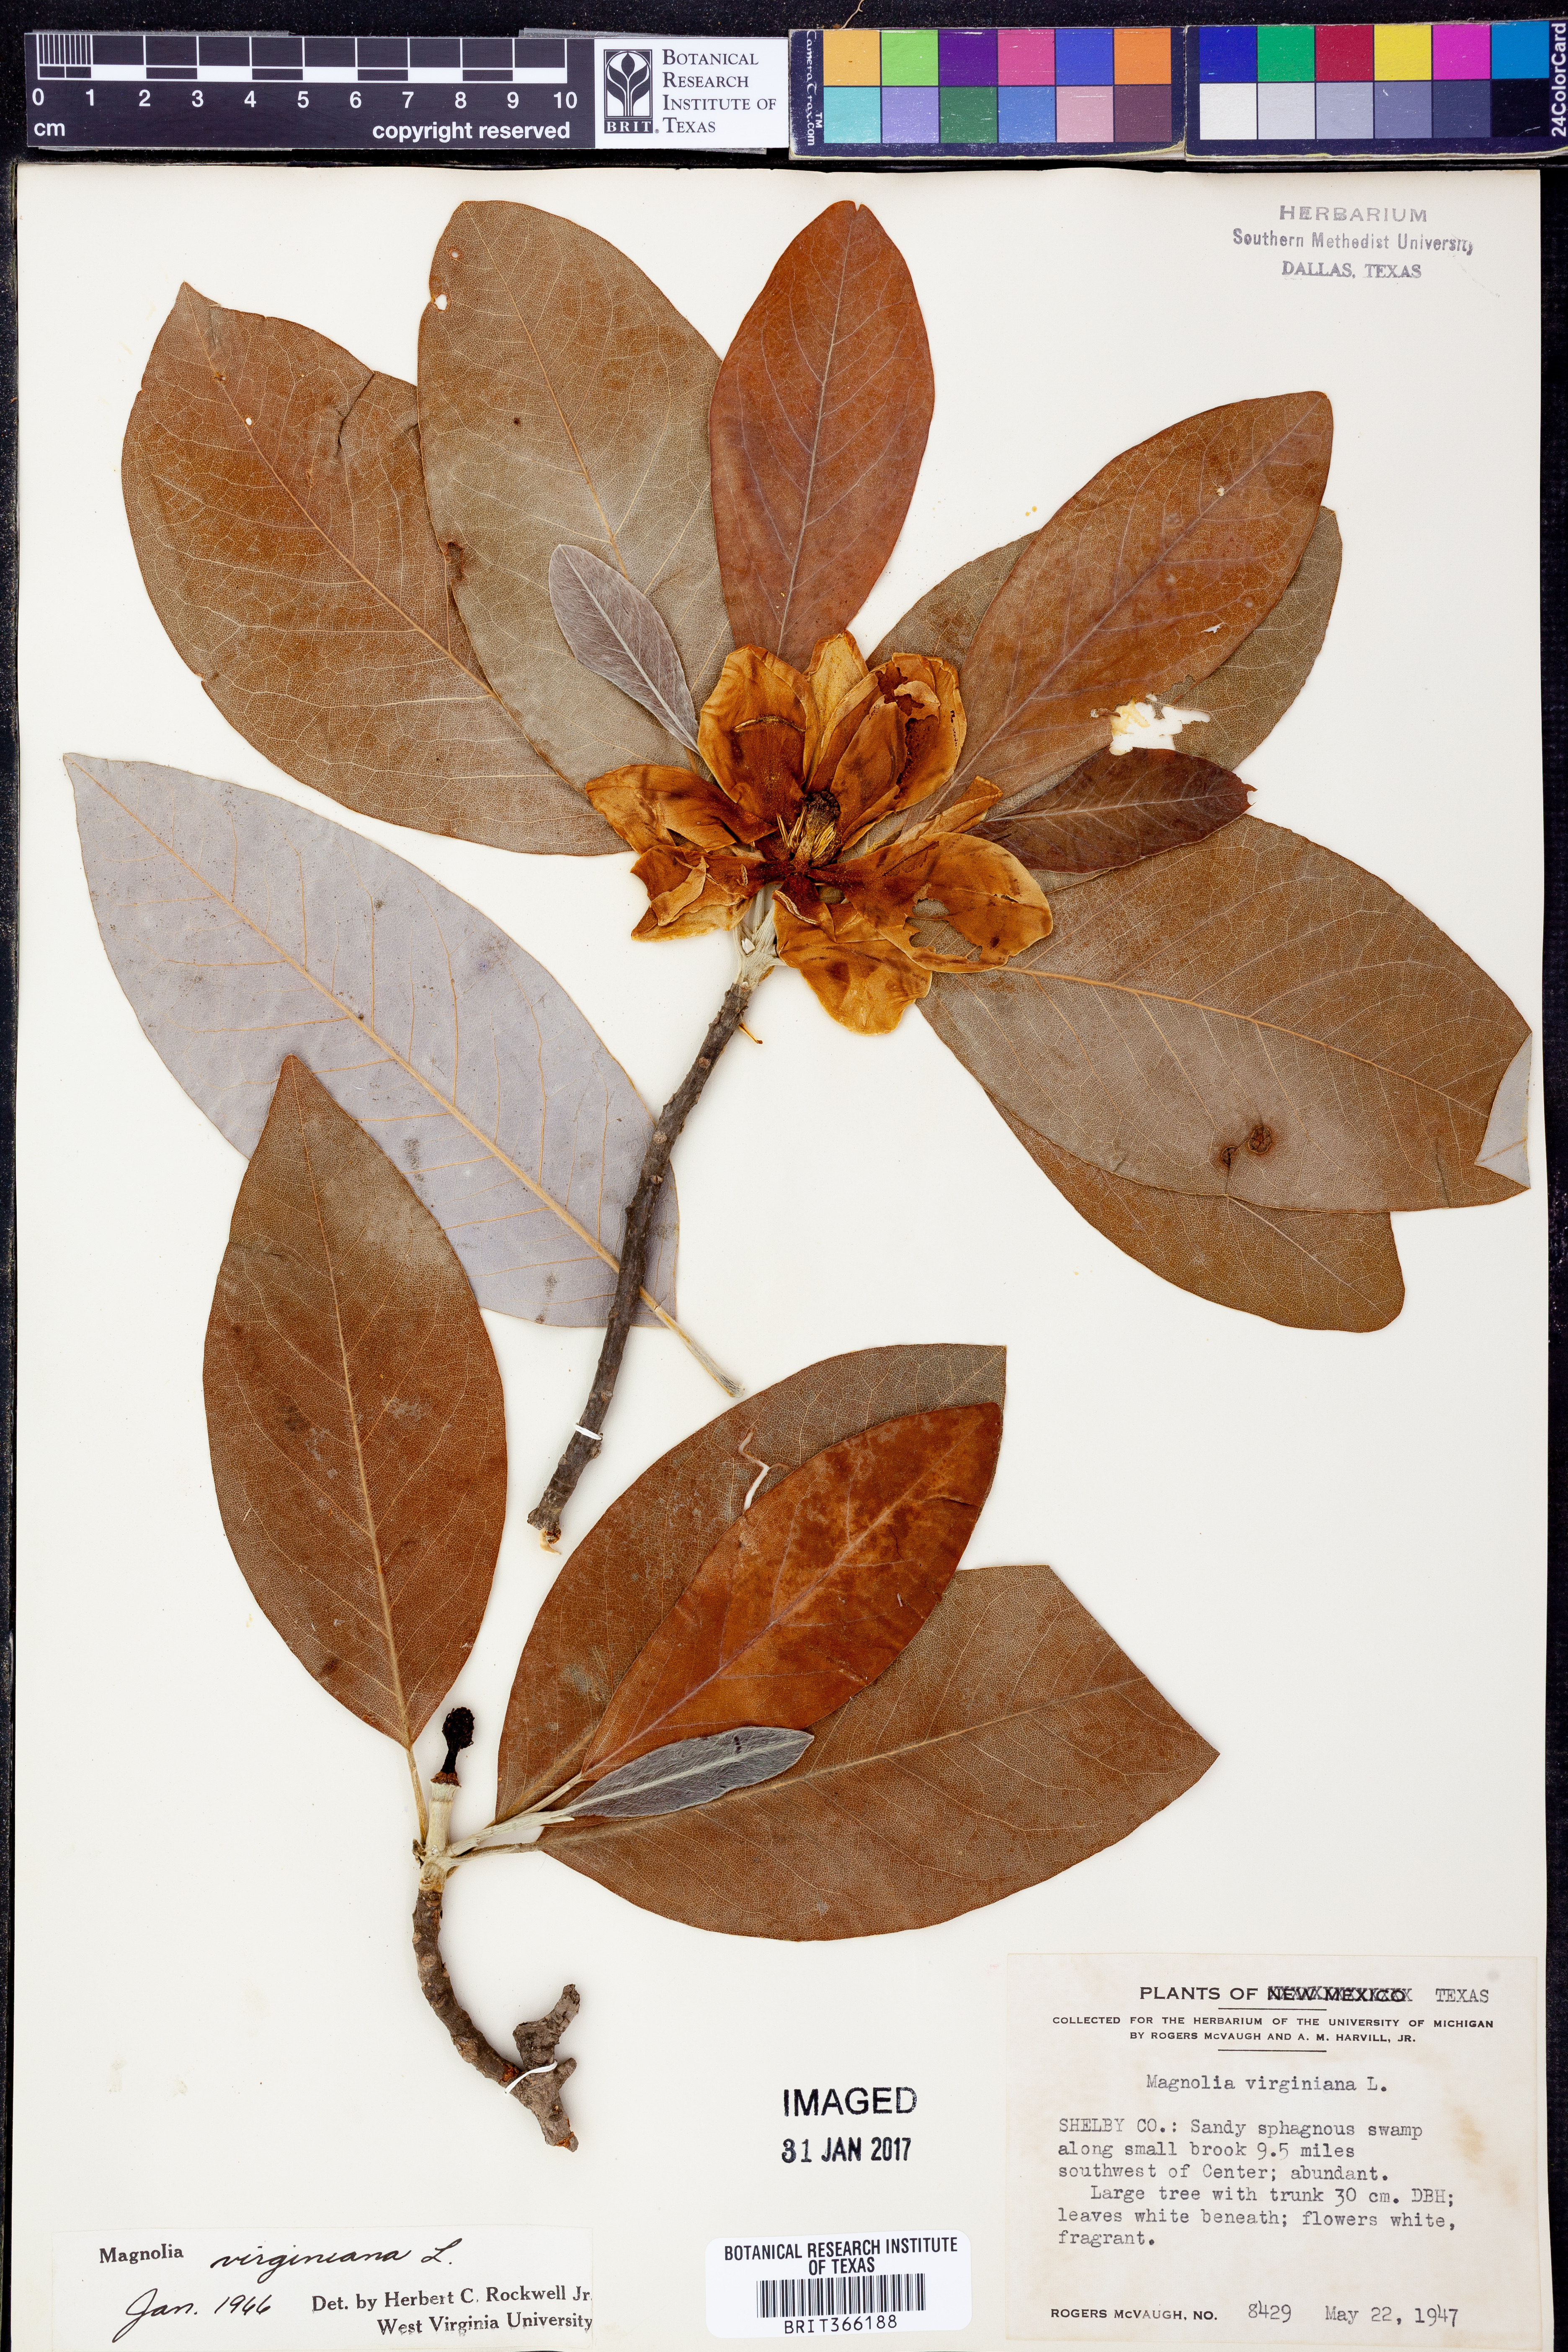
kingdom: Plantae
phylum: Tracheophyta
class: Magnoliopsida
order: Magnoliales
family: Magnoliaceae
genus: Magnolia
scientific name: Magnolia virginiana
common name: Swamp bay
